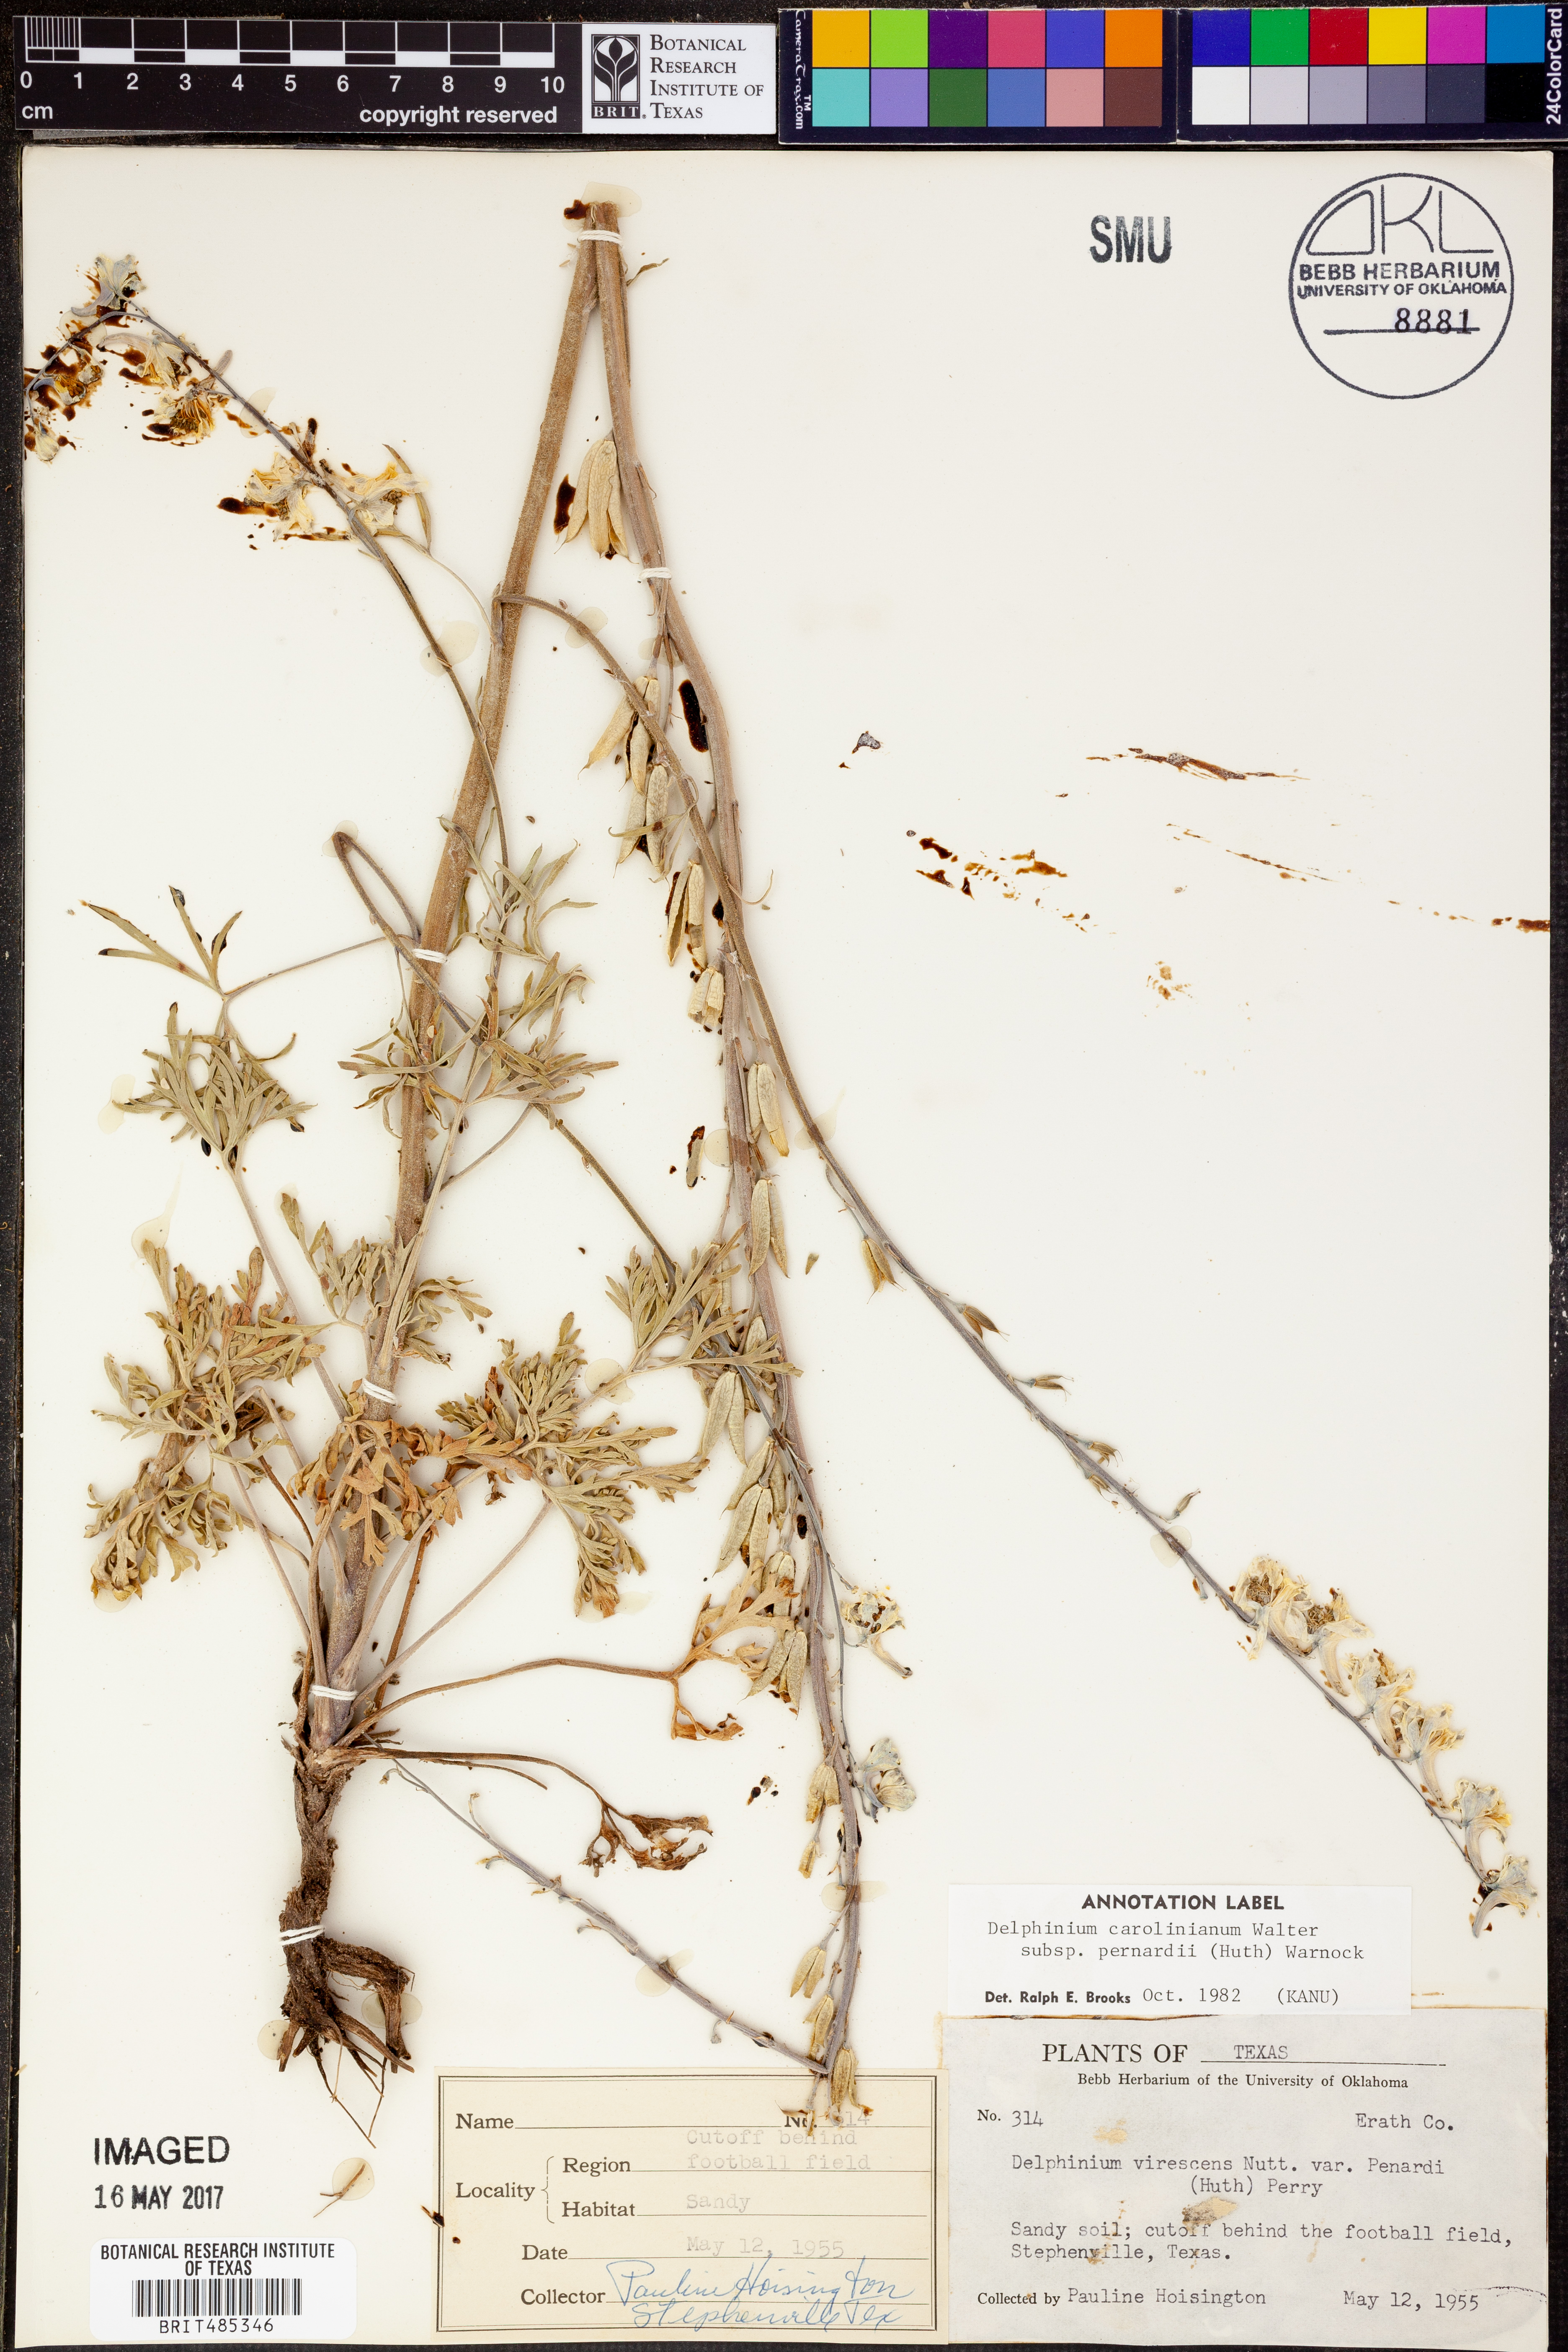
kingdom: Plantae
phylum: Tracheophyta
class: Magnoliopsida
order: Ranunculales
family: Ranunculaceae
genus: Delphinium
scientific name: Delphinium carolinianum
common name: Carolina larkspur
